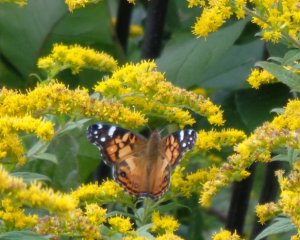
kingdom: Animalia
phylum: Arthropoda
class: Insecta
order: Lepidoptera
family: Nymphalidae
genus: Vanessa
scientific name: Vanessa virginiensis
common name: American Lady
